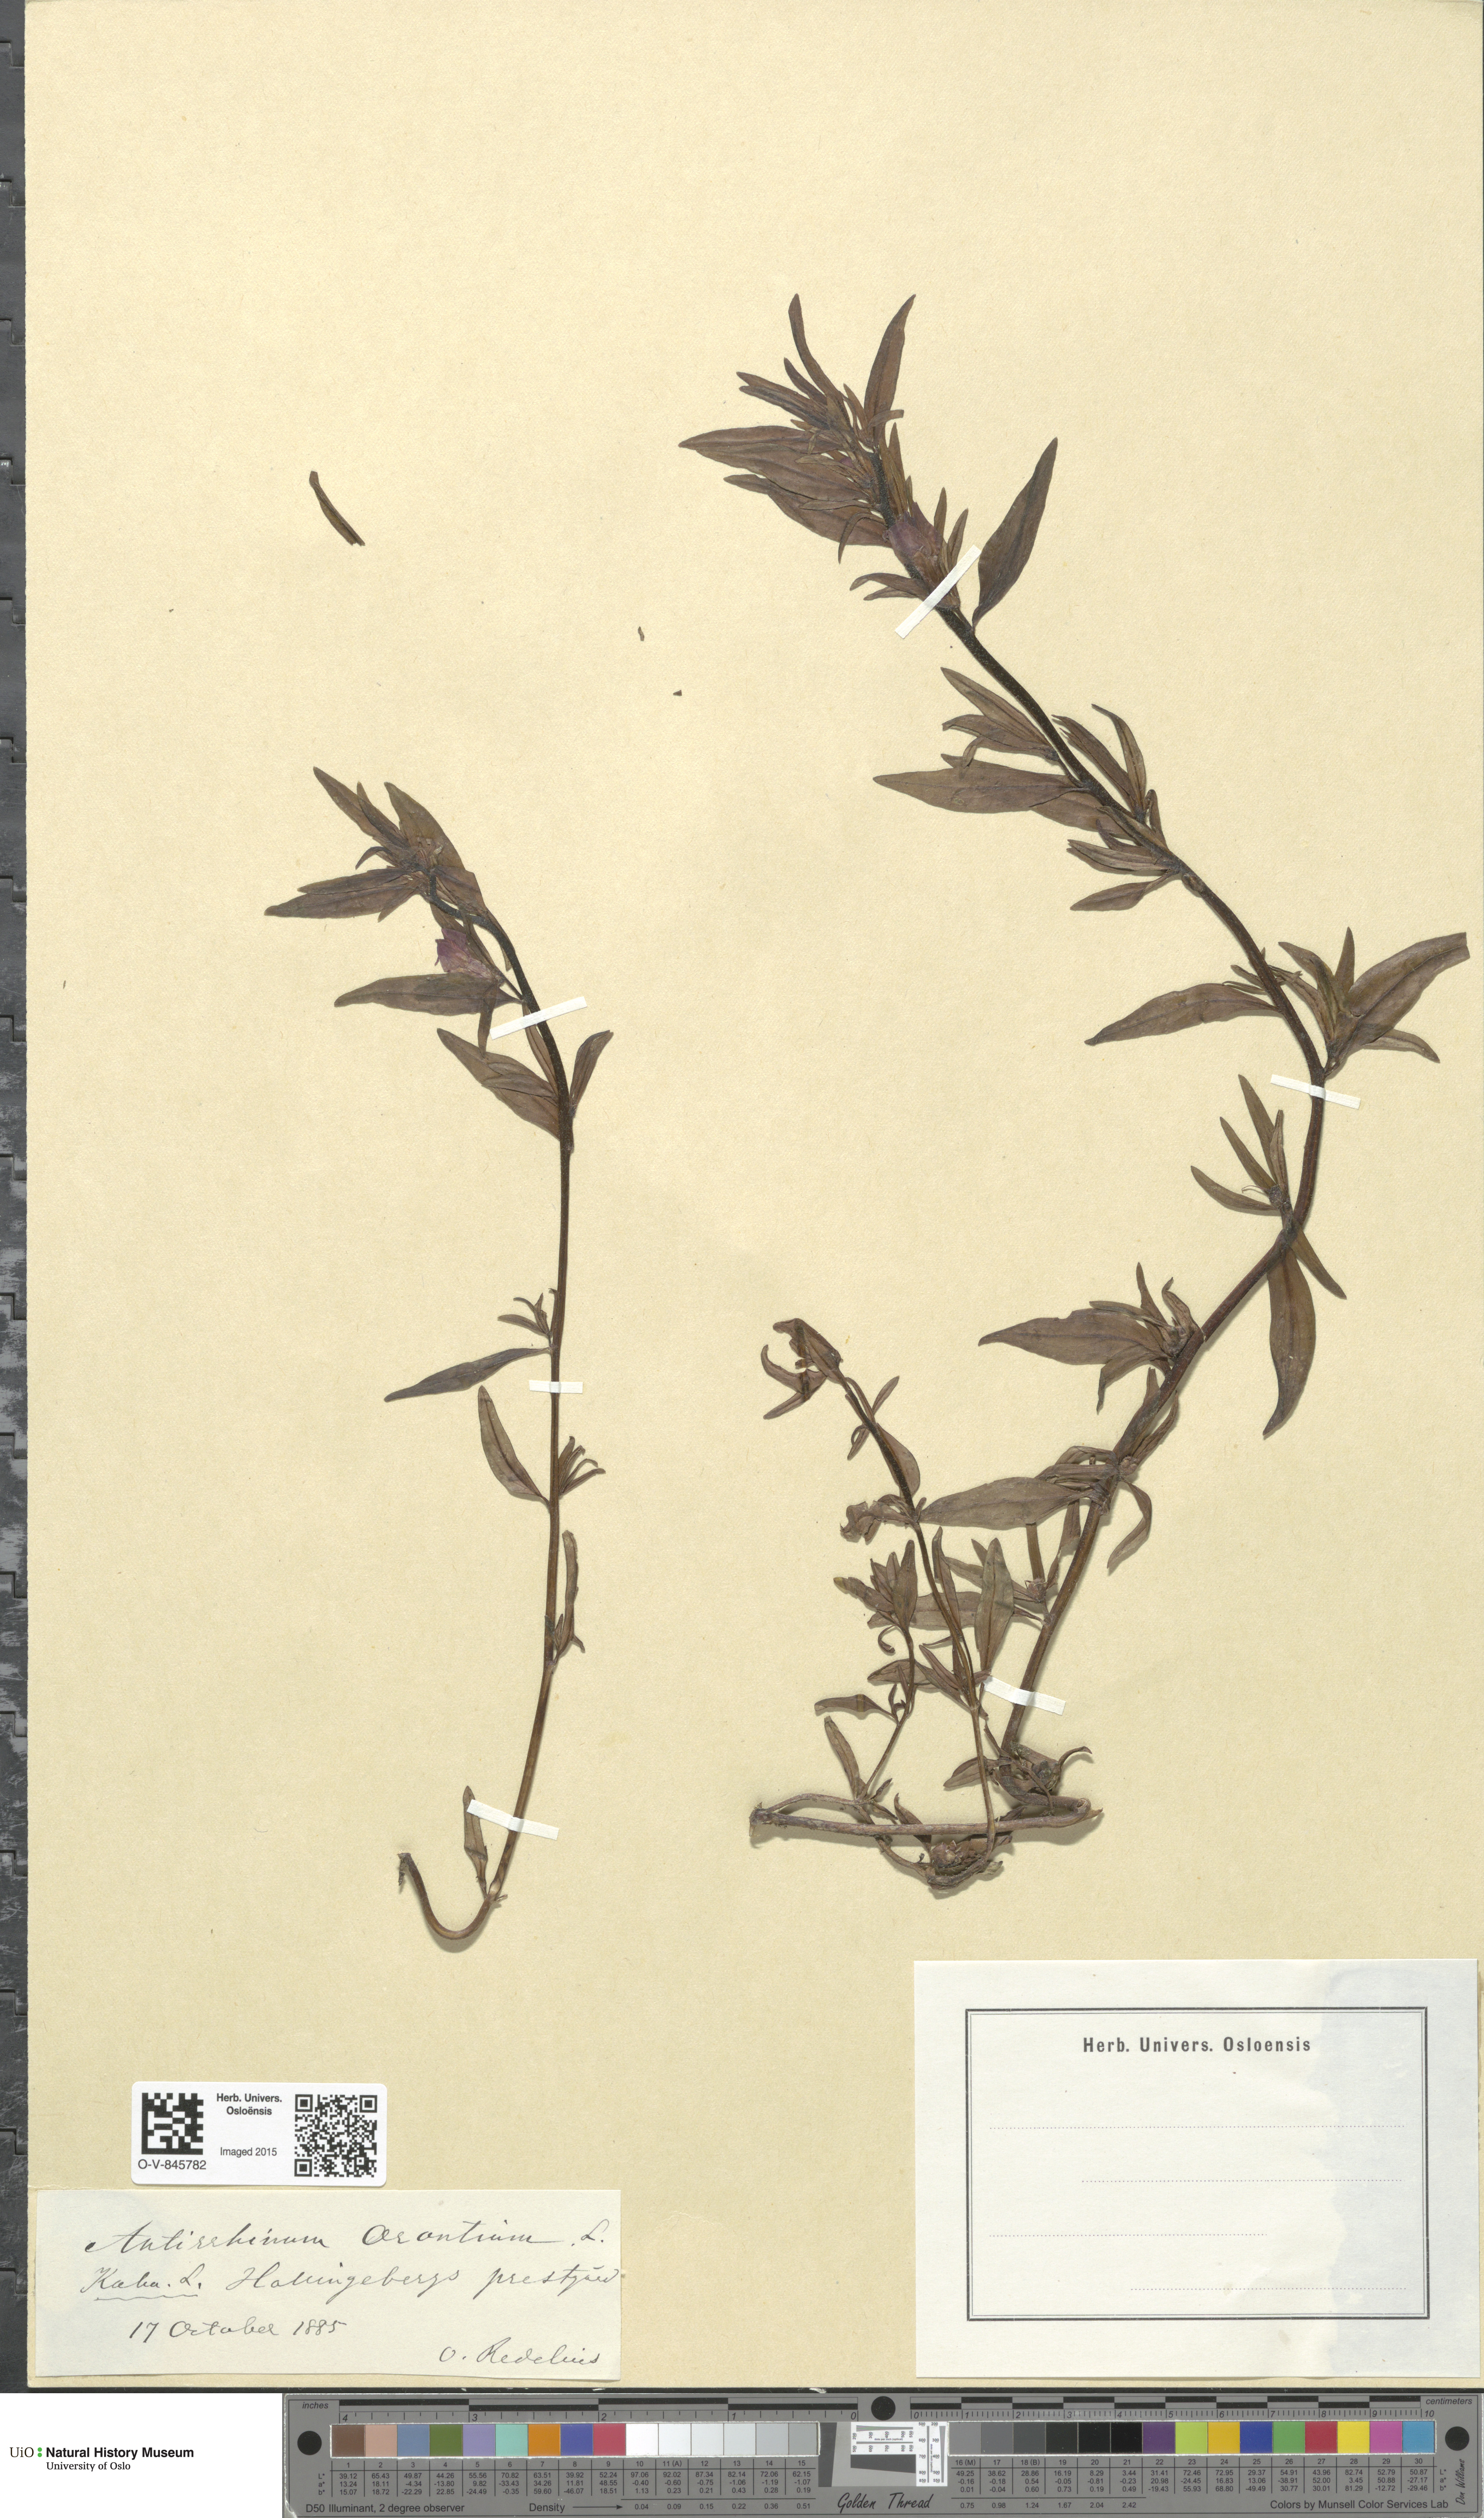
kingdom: Plantae
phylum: Tracheophyta
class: Magnoliopsida
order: Lamiales
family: Plantaginaceae
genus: Misopates
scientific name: Misopates orontium
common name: Weasel's-snout
